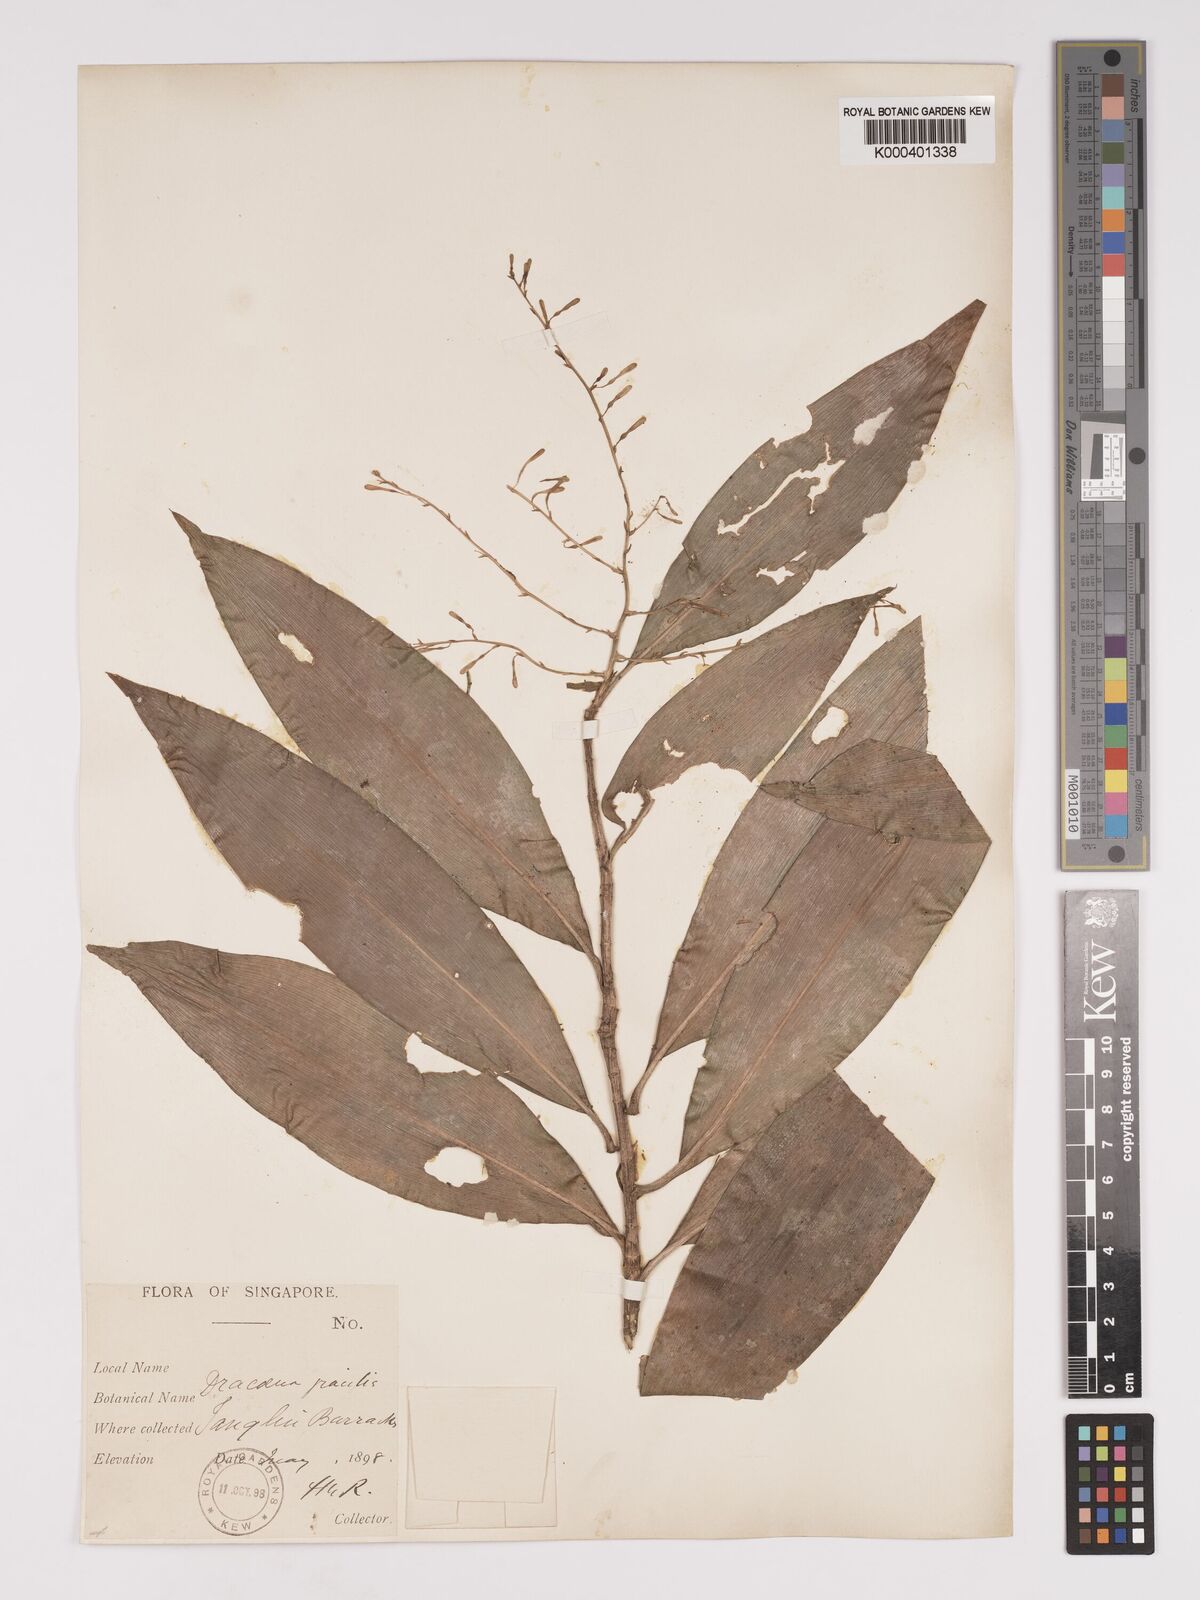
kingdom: Plantae
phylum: Tracheophyta
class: Liliopsida
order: Asparagales
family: Asparagaceae
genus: Dracaena
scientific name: Dracaena elliptica
